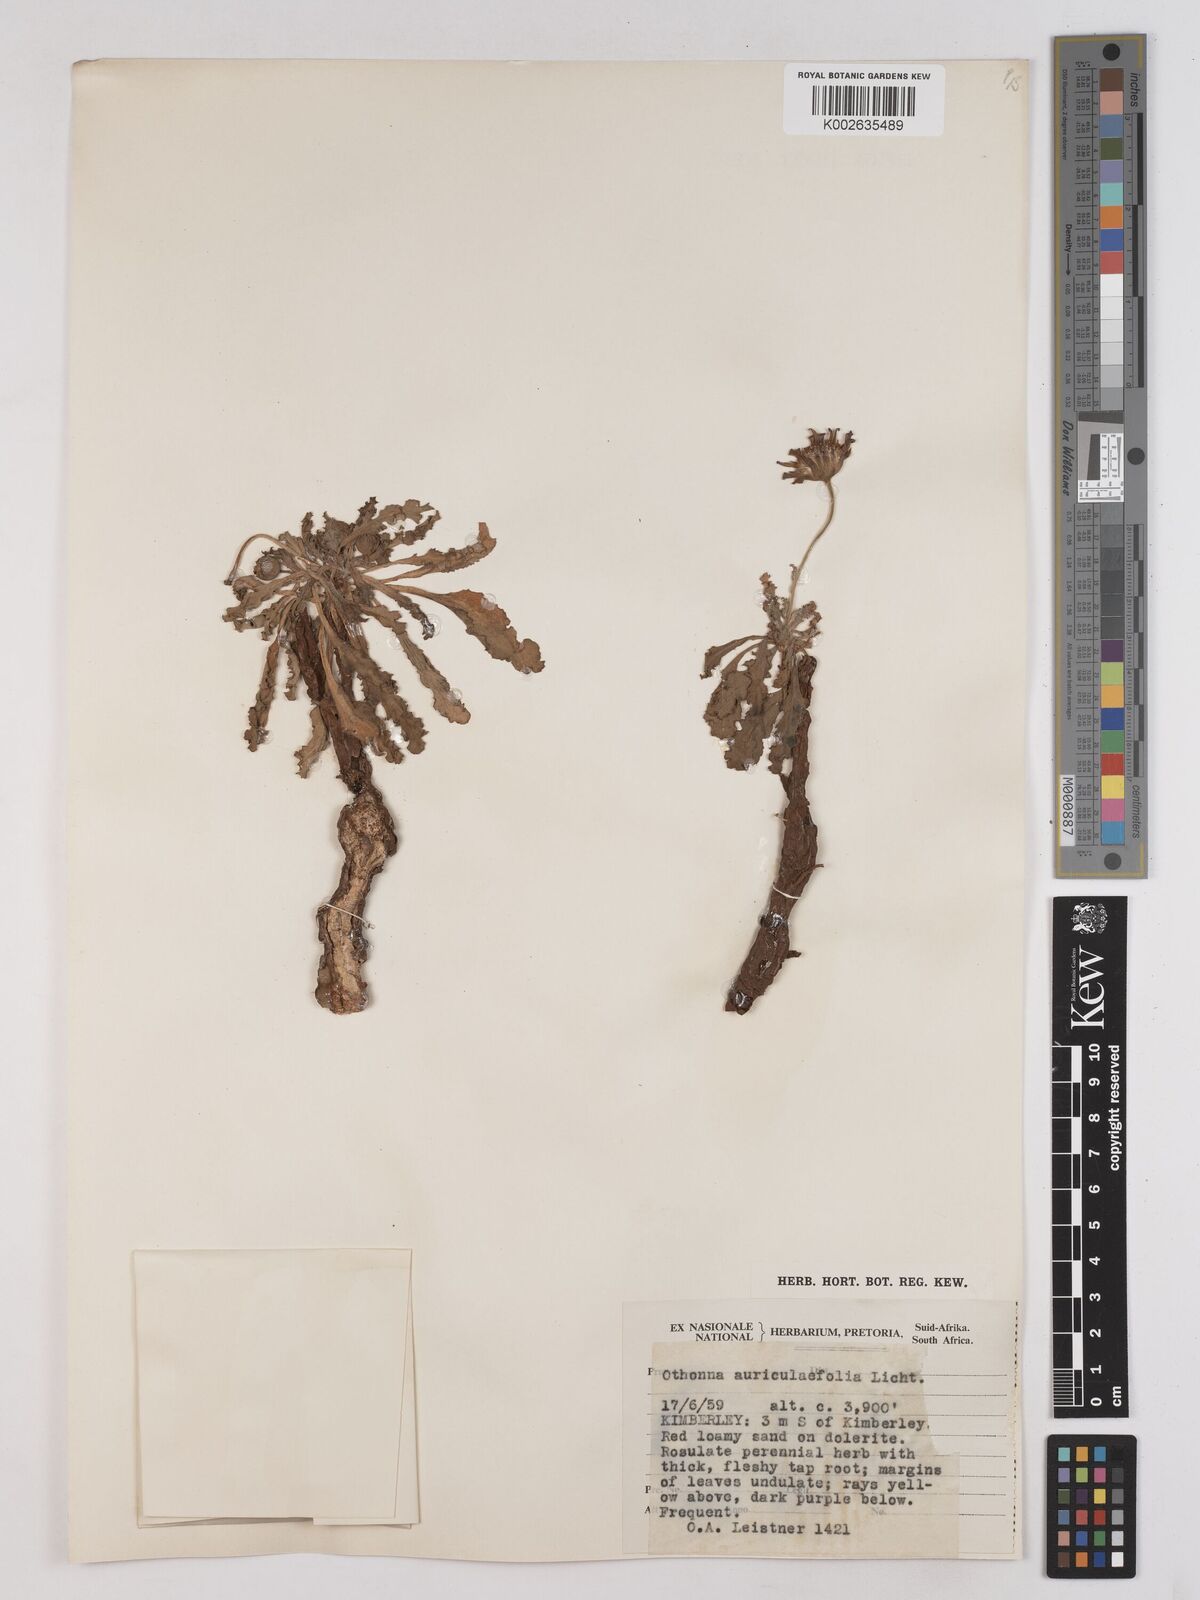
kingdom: Plantae
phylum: Tracheophyta
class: Magnoliopsida
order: Asterales
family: Asteraceae
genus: Othonna
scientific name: Othonna auriculifolia
